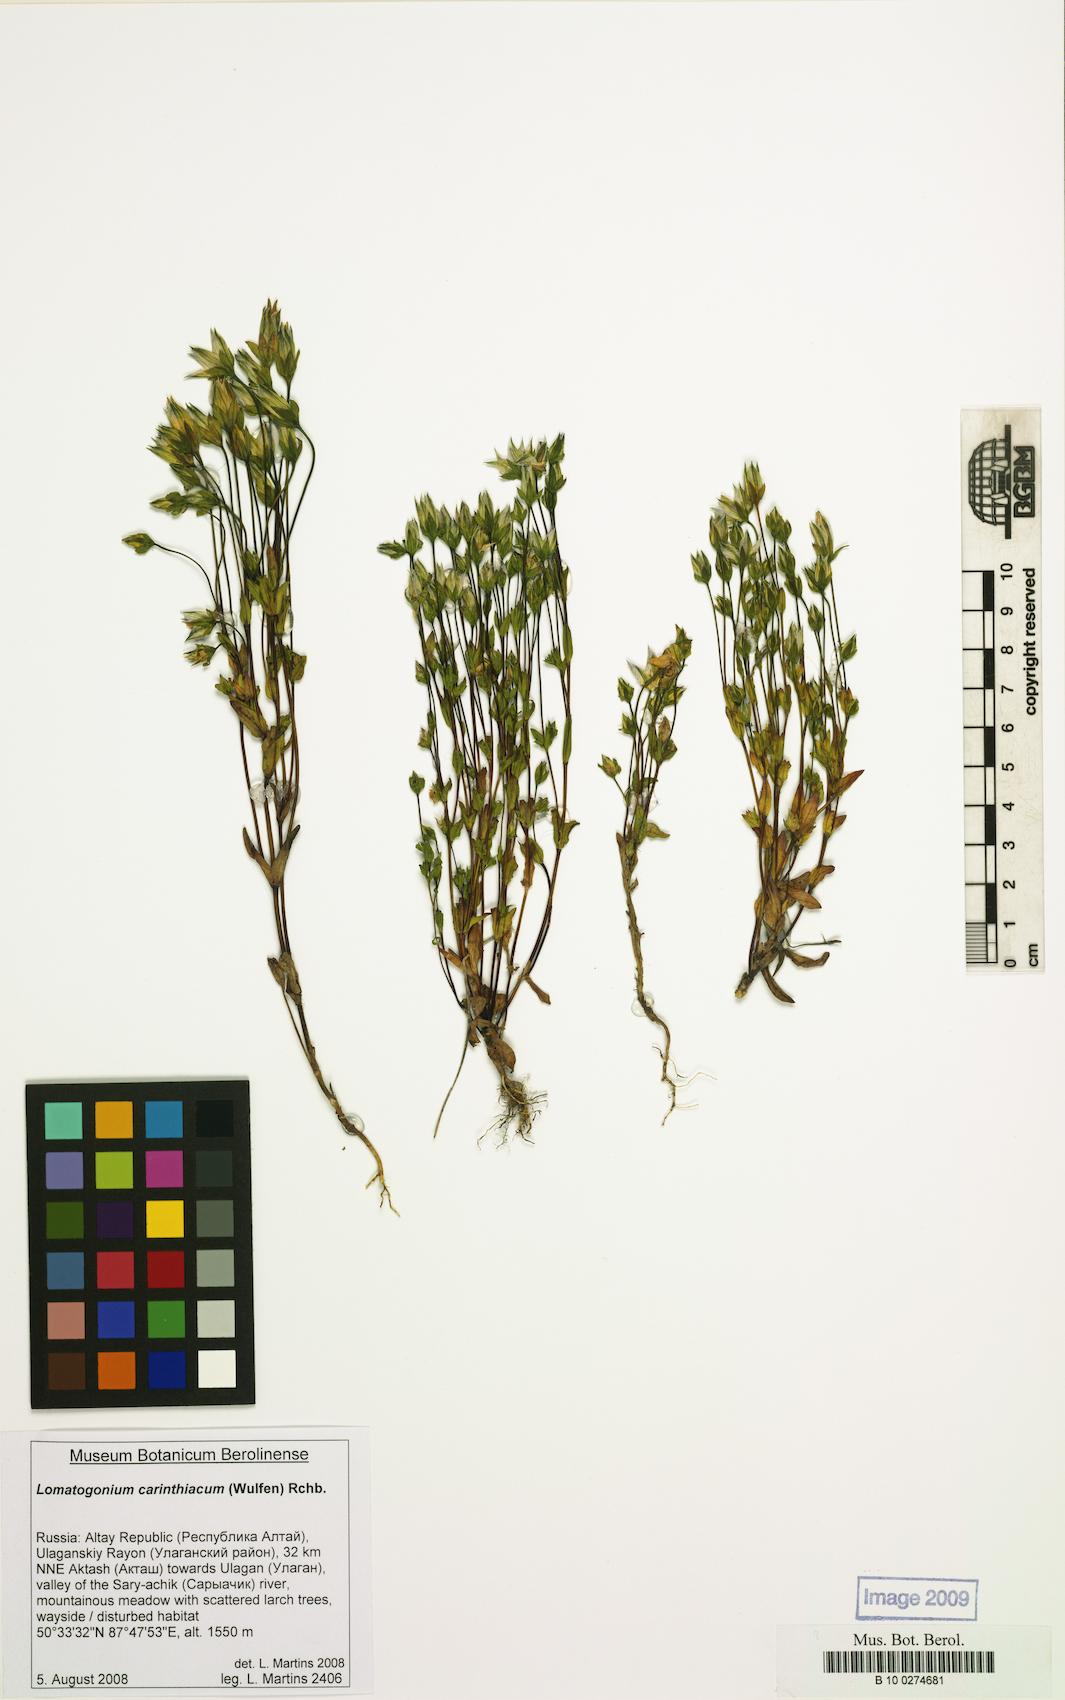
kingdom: Plantae
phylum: Tracheophyta
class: Magnoliopsida
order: Gentianales
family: Gentianaceae
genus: Lomatogonium
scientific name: Lomatogonium carinthiacum
